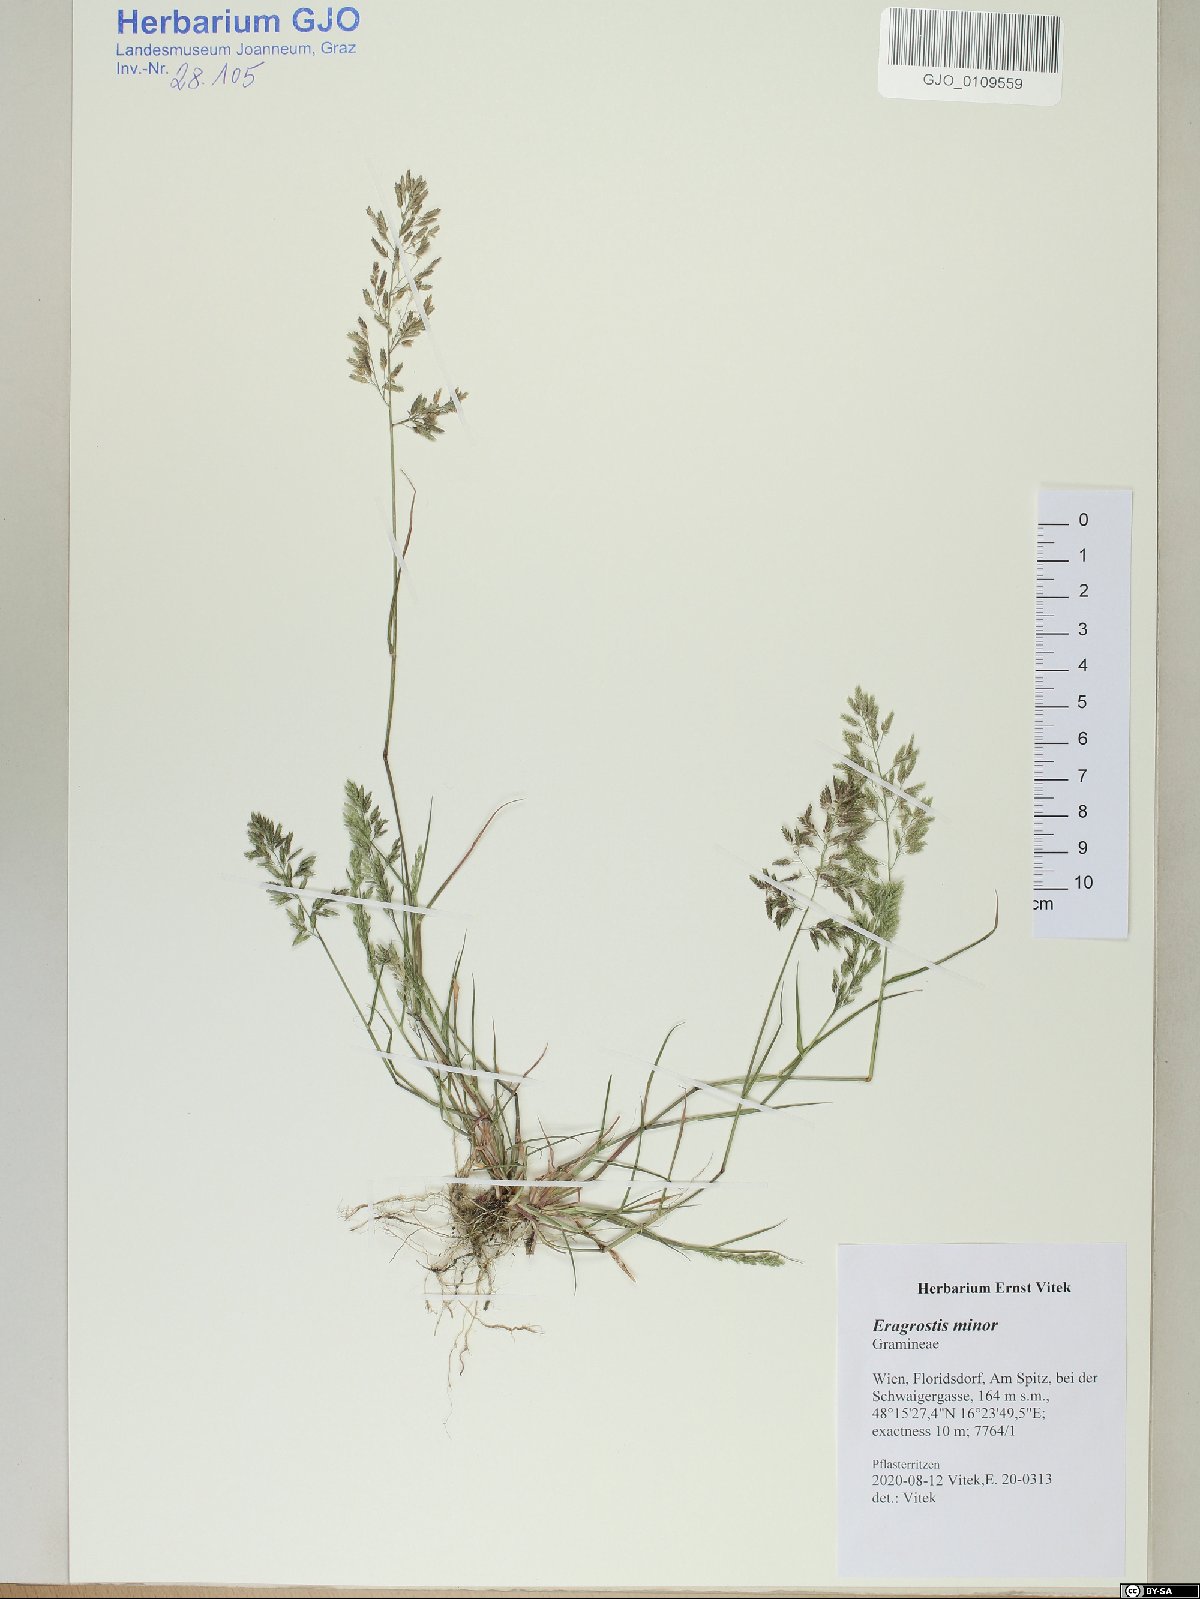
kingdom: Plantae
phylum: Tracheophyta
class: Liliopsida
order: Poales
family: Poaceae
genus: Eragrostis
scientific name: Eragrostis minor
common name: Small love-grass
